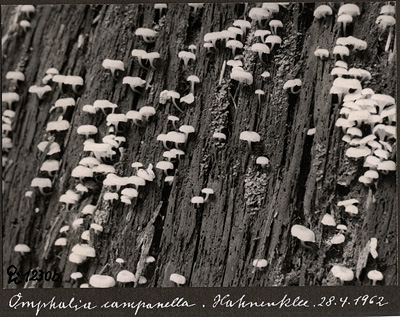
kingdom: Fungi
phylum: Basidiomycota
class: Agaricomycetes
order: Agaricales
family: Mycenaceae
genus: Xeromphalina
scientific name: Xeromphalina campanella
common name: Pinewood gingertail
